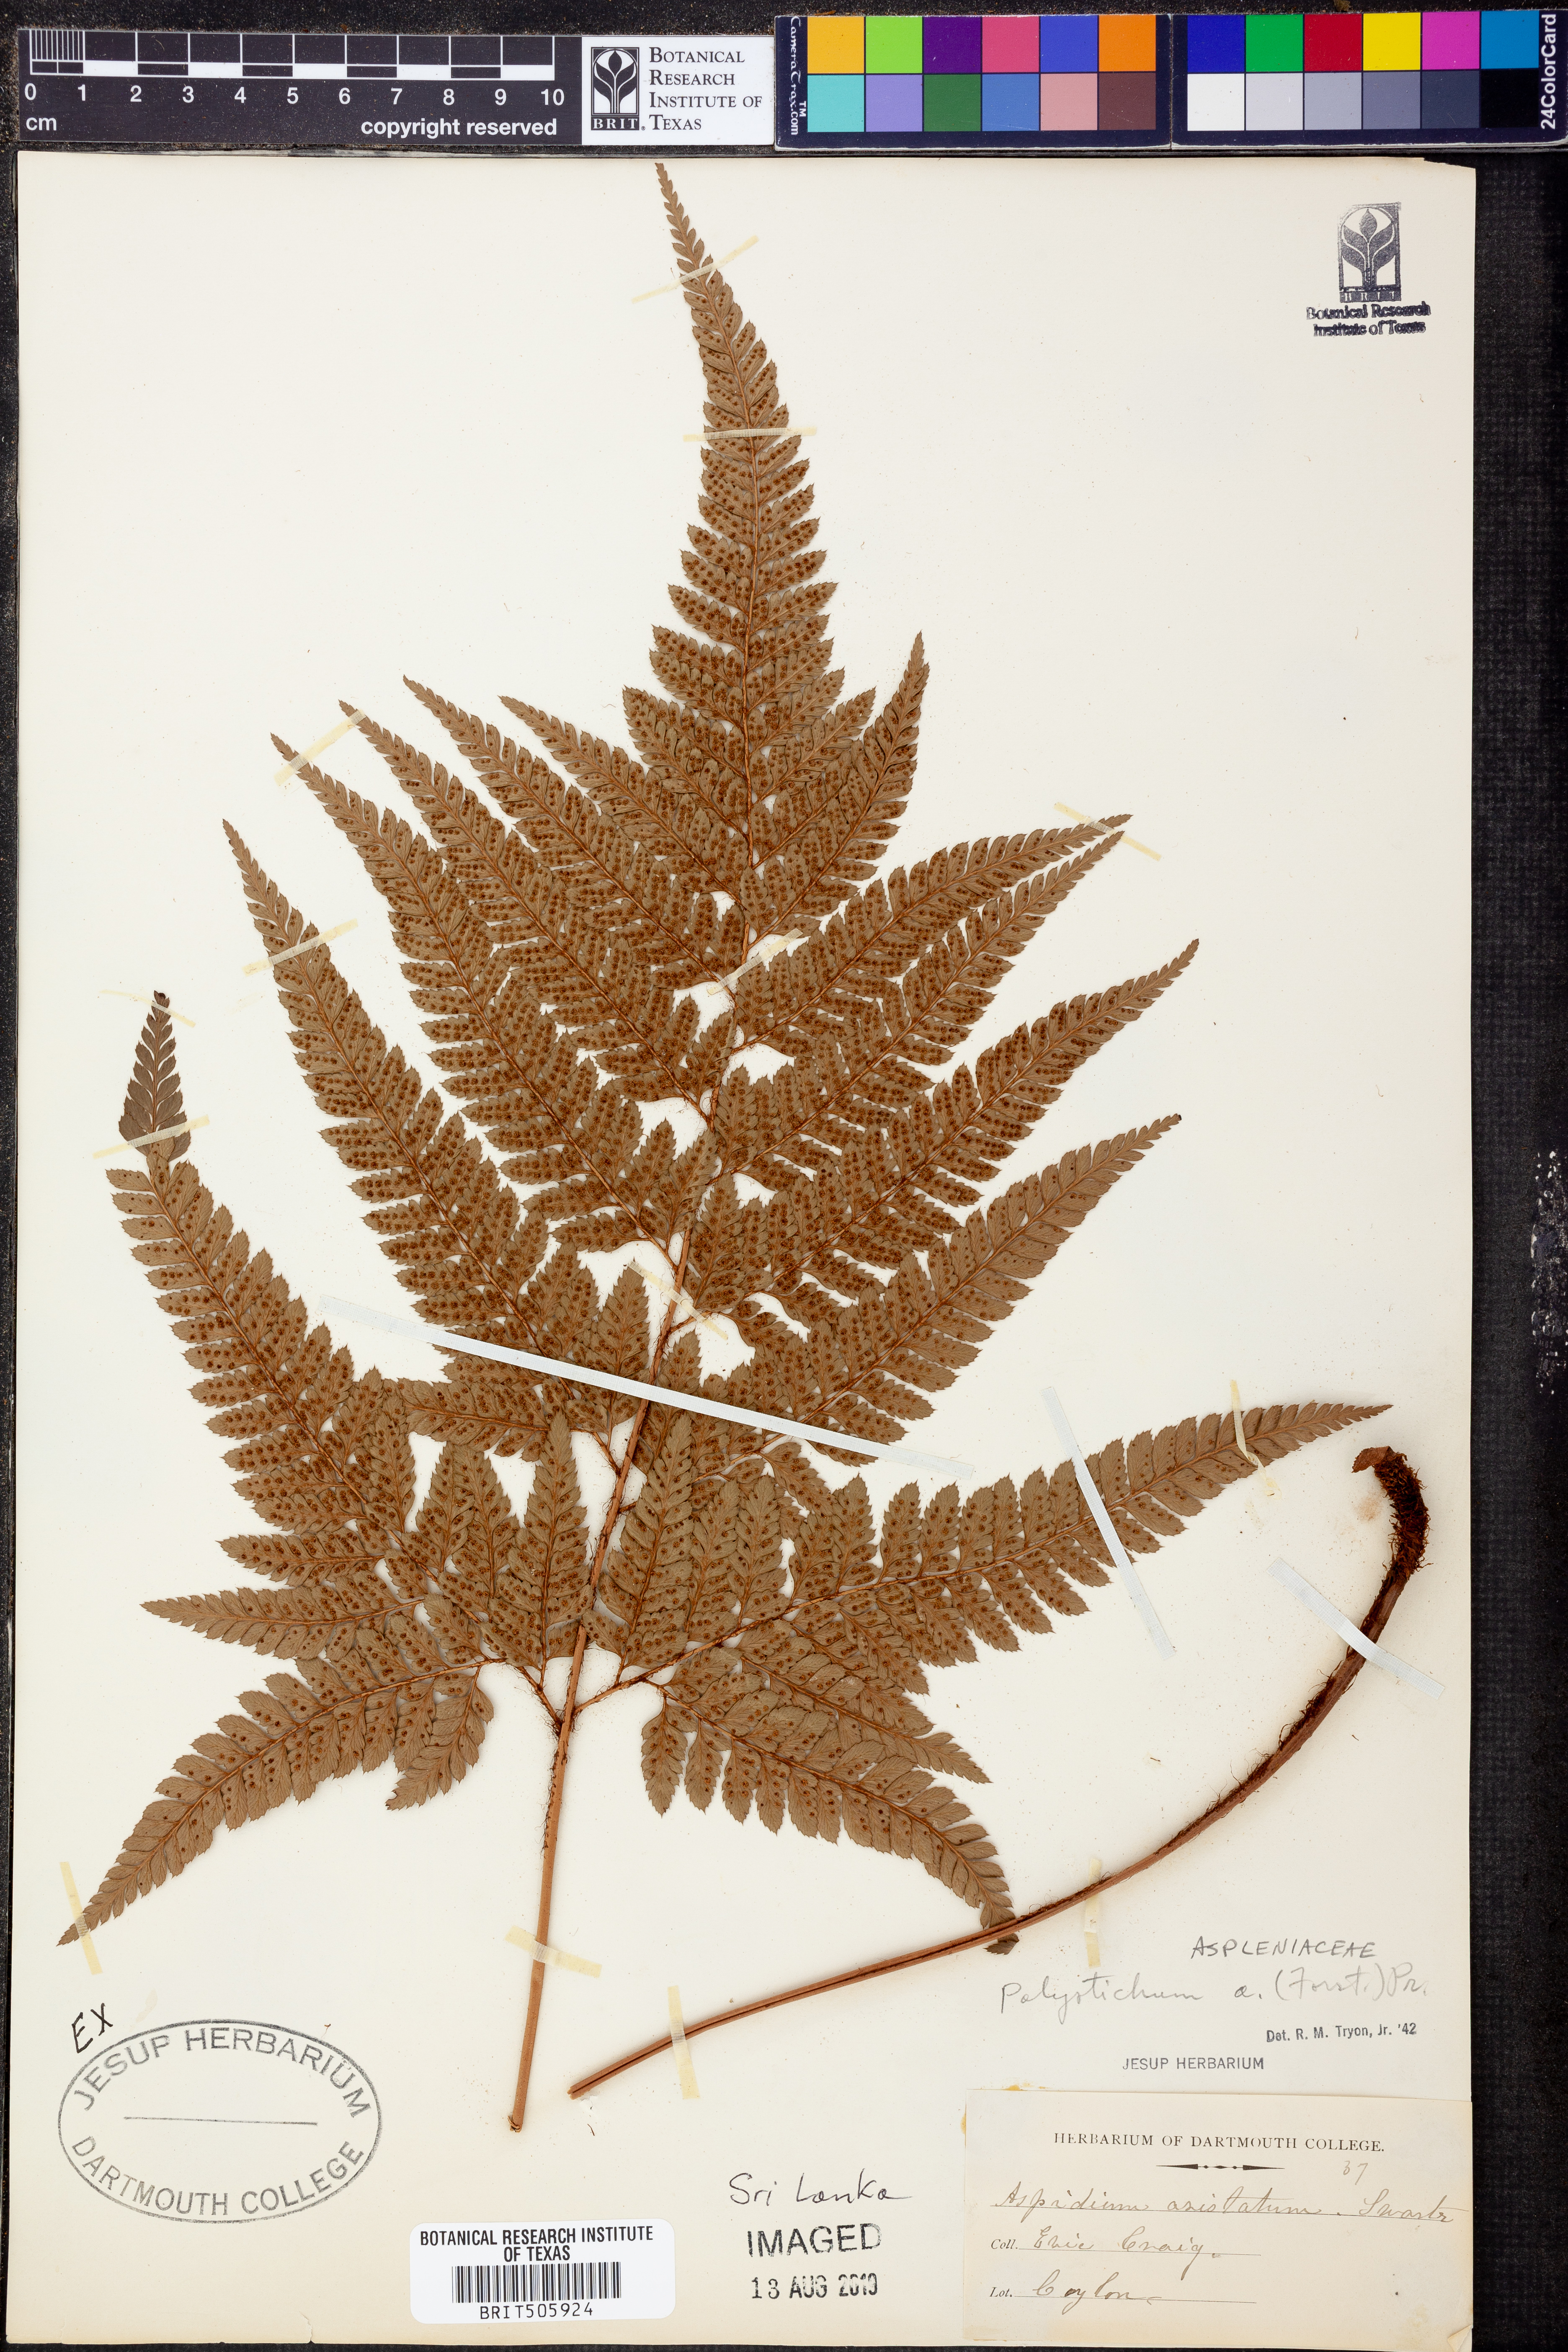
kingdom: Plantae
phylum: Tracheophyta
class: Polypodiopsida
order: Polypodiales
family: Dryopteridaceae
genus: Polystichum
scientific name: Polystichum aristatum
